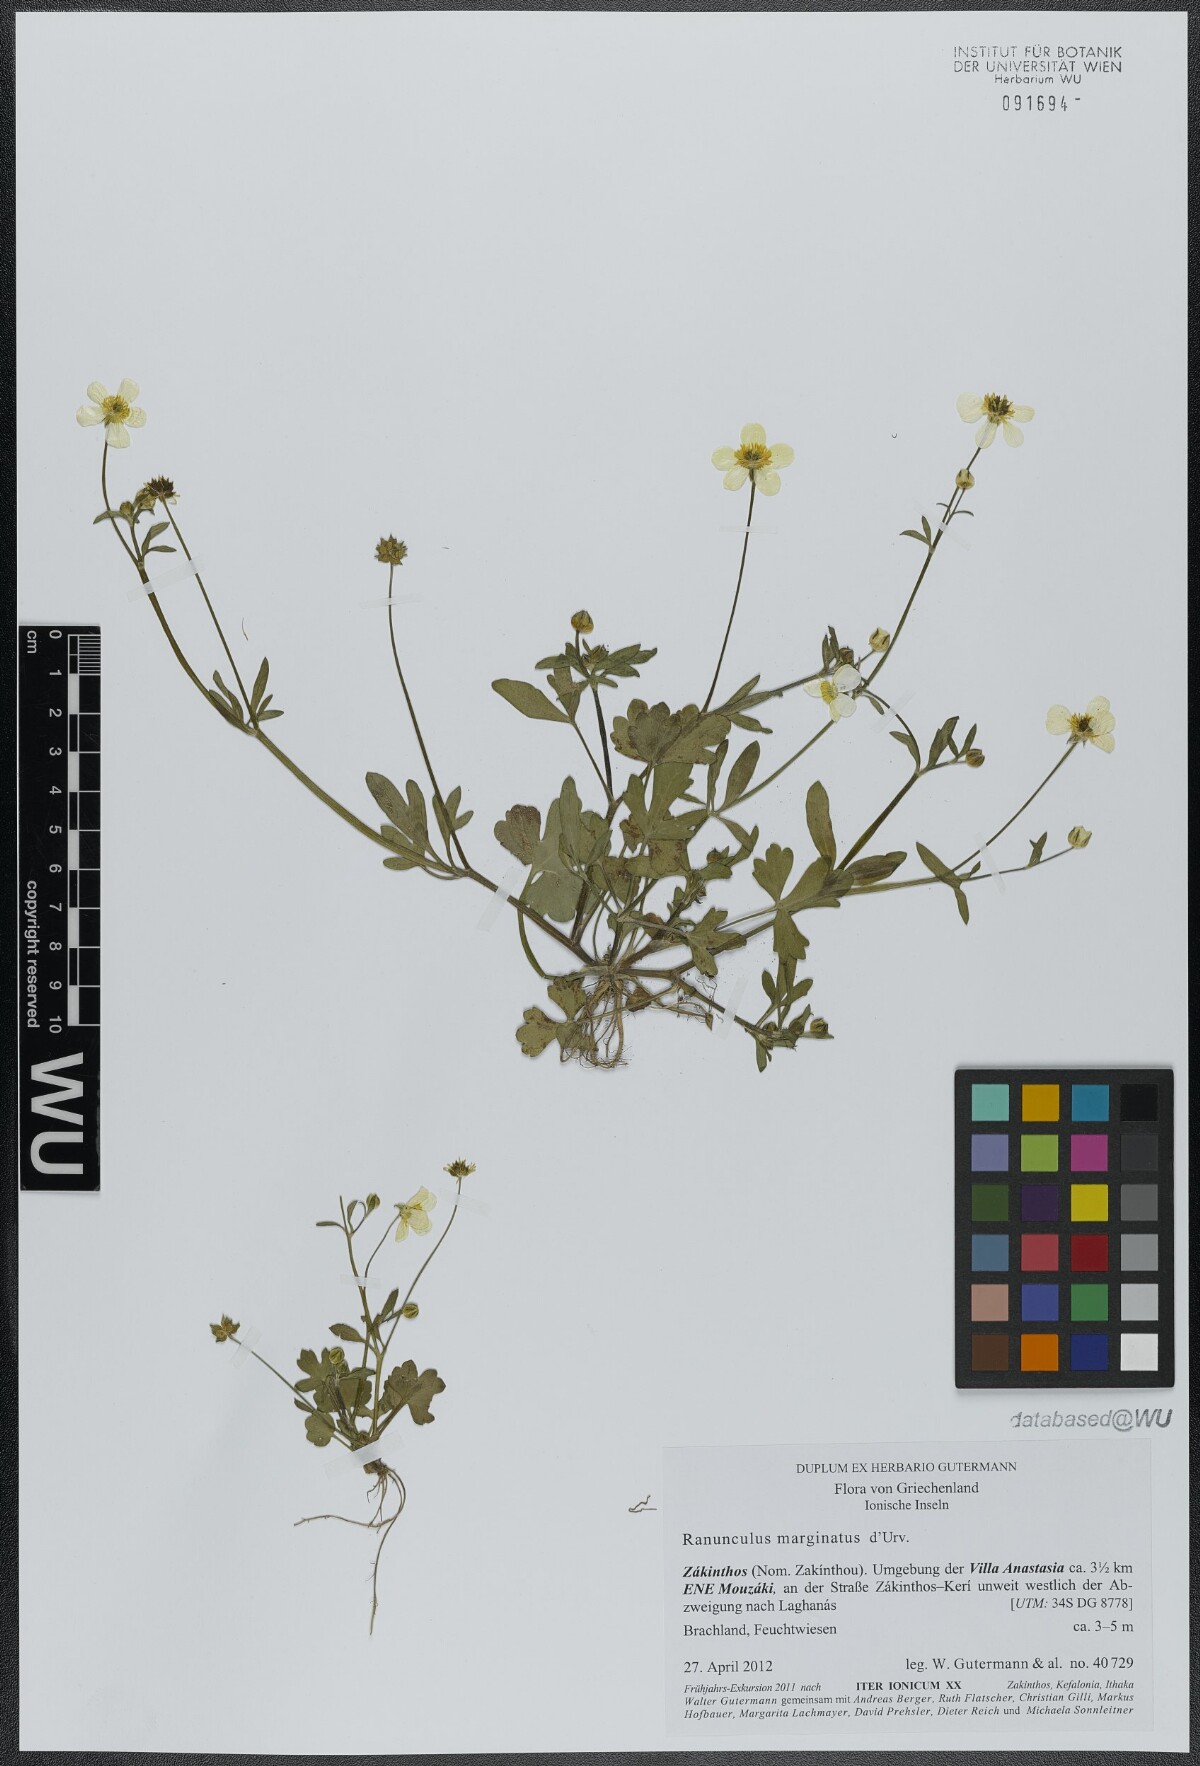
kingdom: Plantae
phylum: Tracheophyta
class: Magnoliopsida
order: Ranunculales
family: Ranunculaceae
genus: Ranunculus
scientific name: Ranunculus marginatus
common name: St. martin's buttercup
